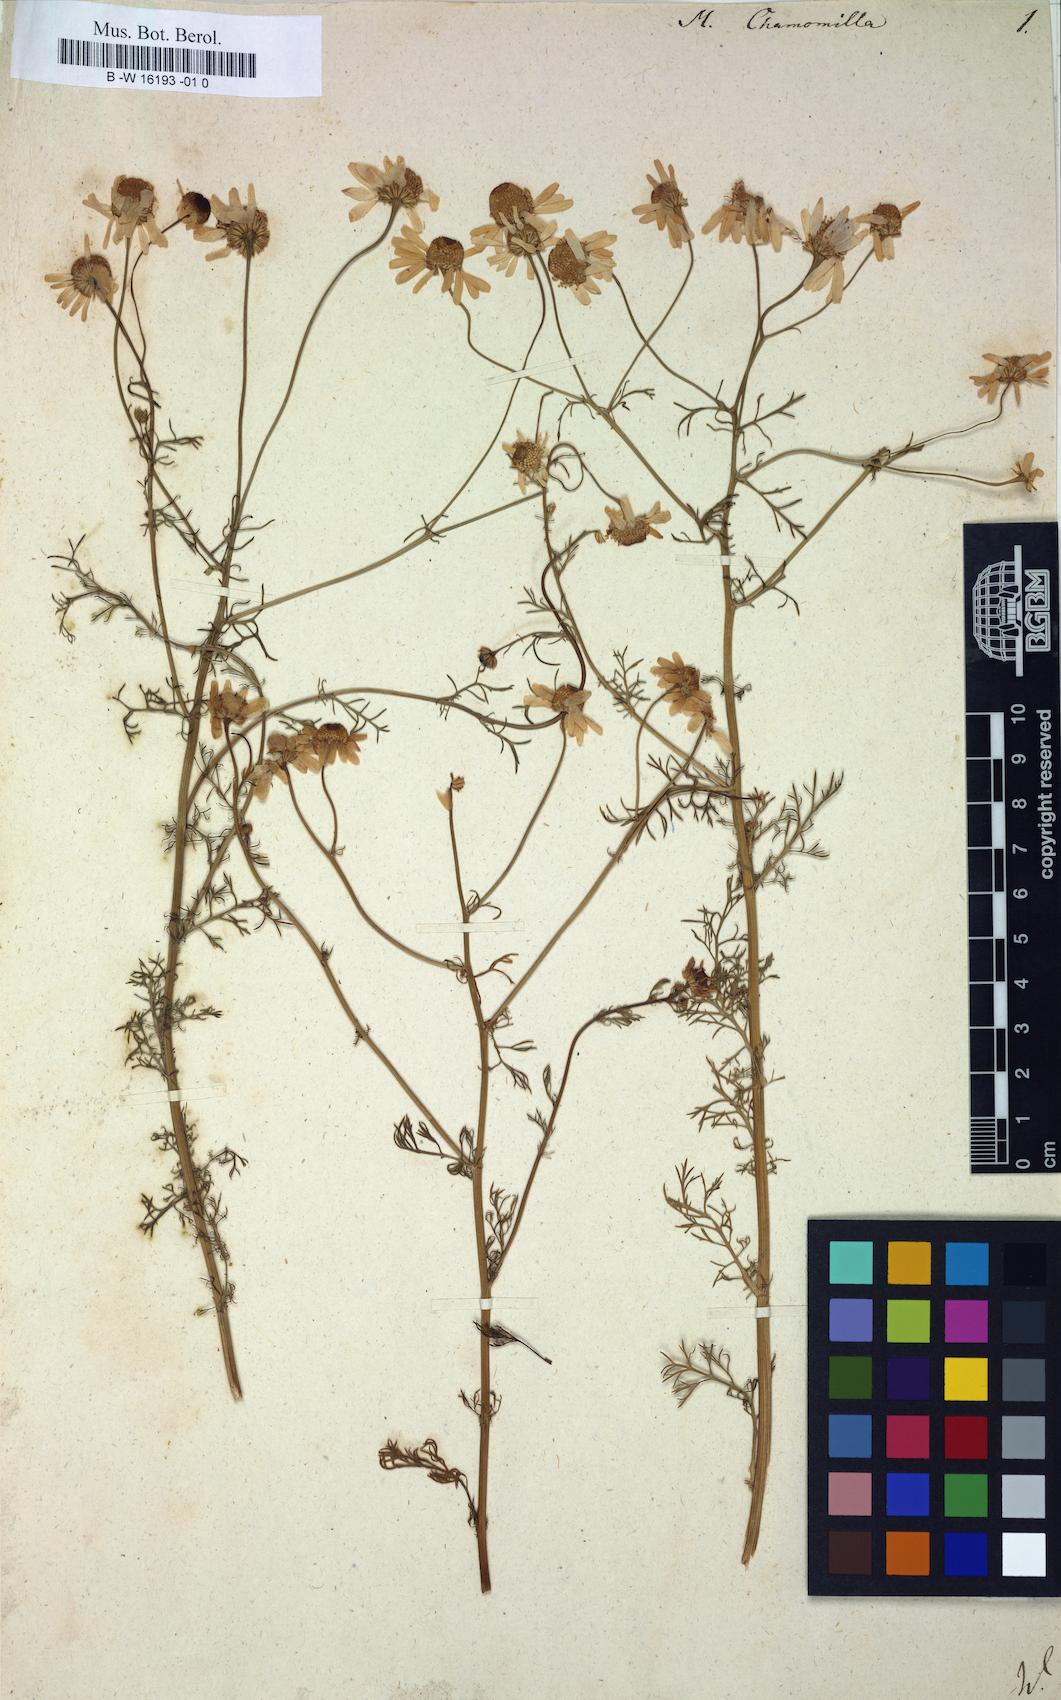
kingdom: Plantae
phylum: Tracheophyta
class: Magnoliopsida
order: Asterales
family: Asteraceae
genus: Matricaria
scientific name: Matricaria chamomilla
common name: Scented mayweed
